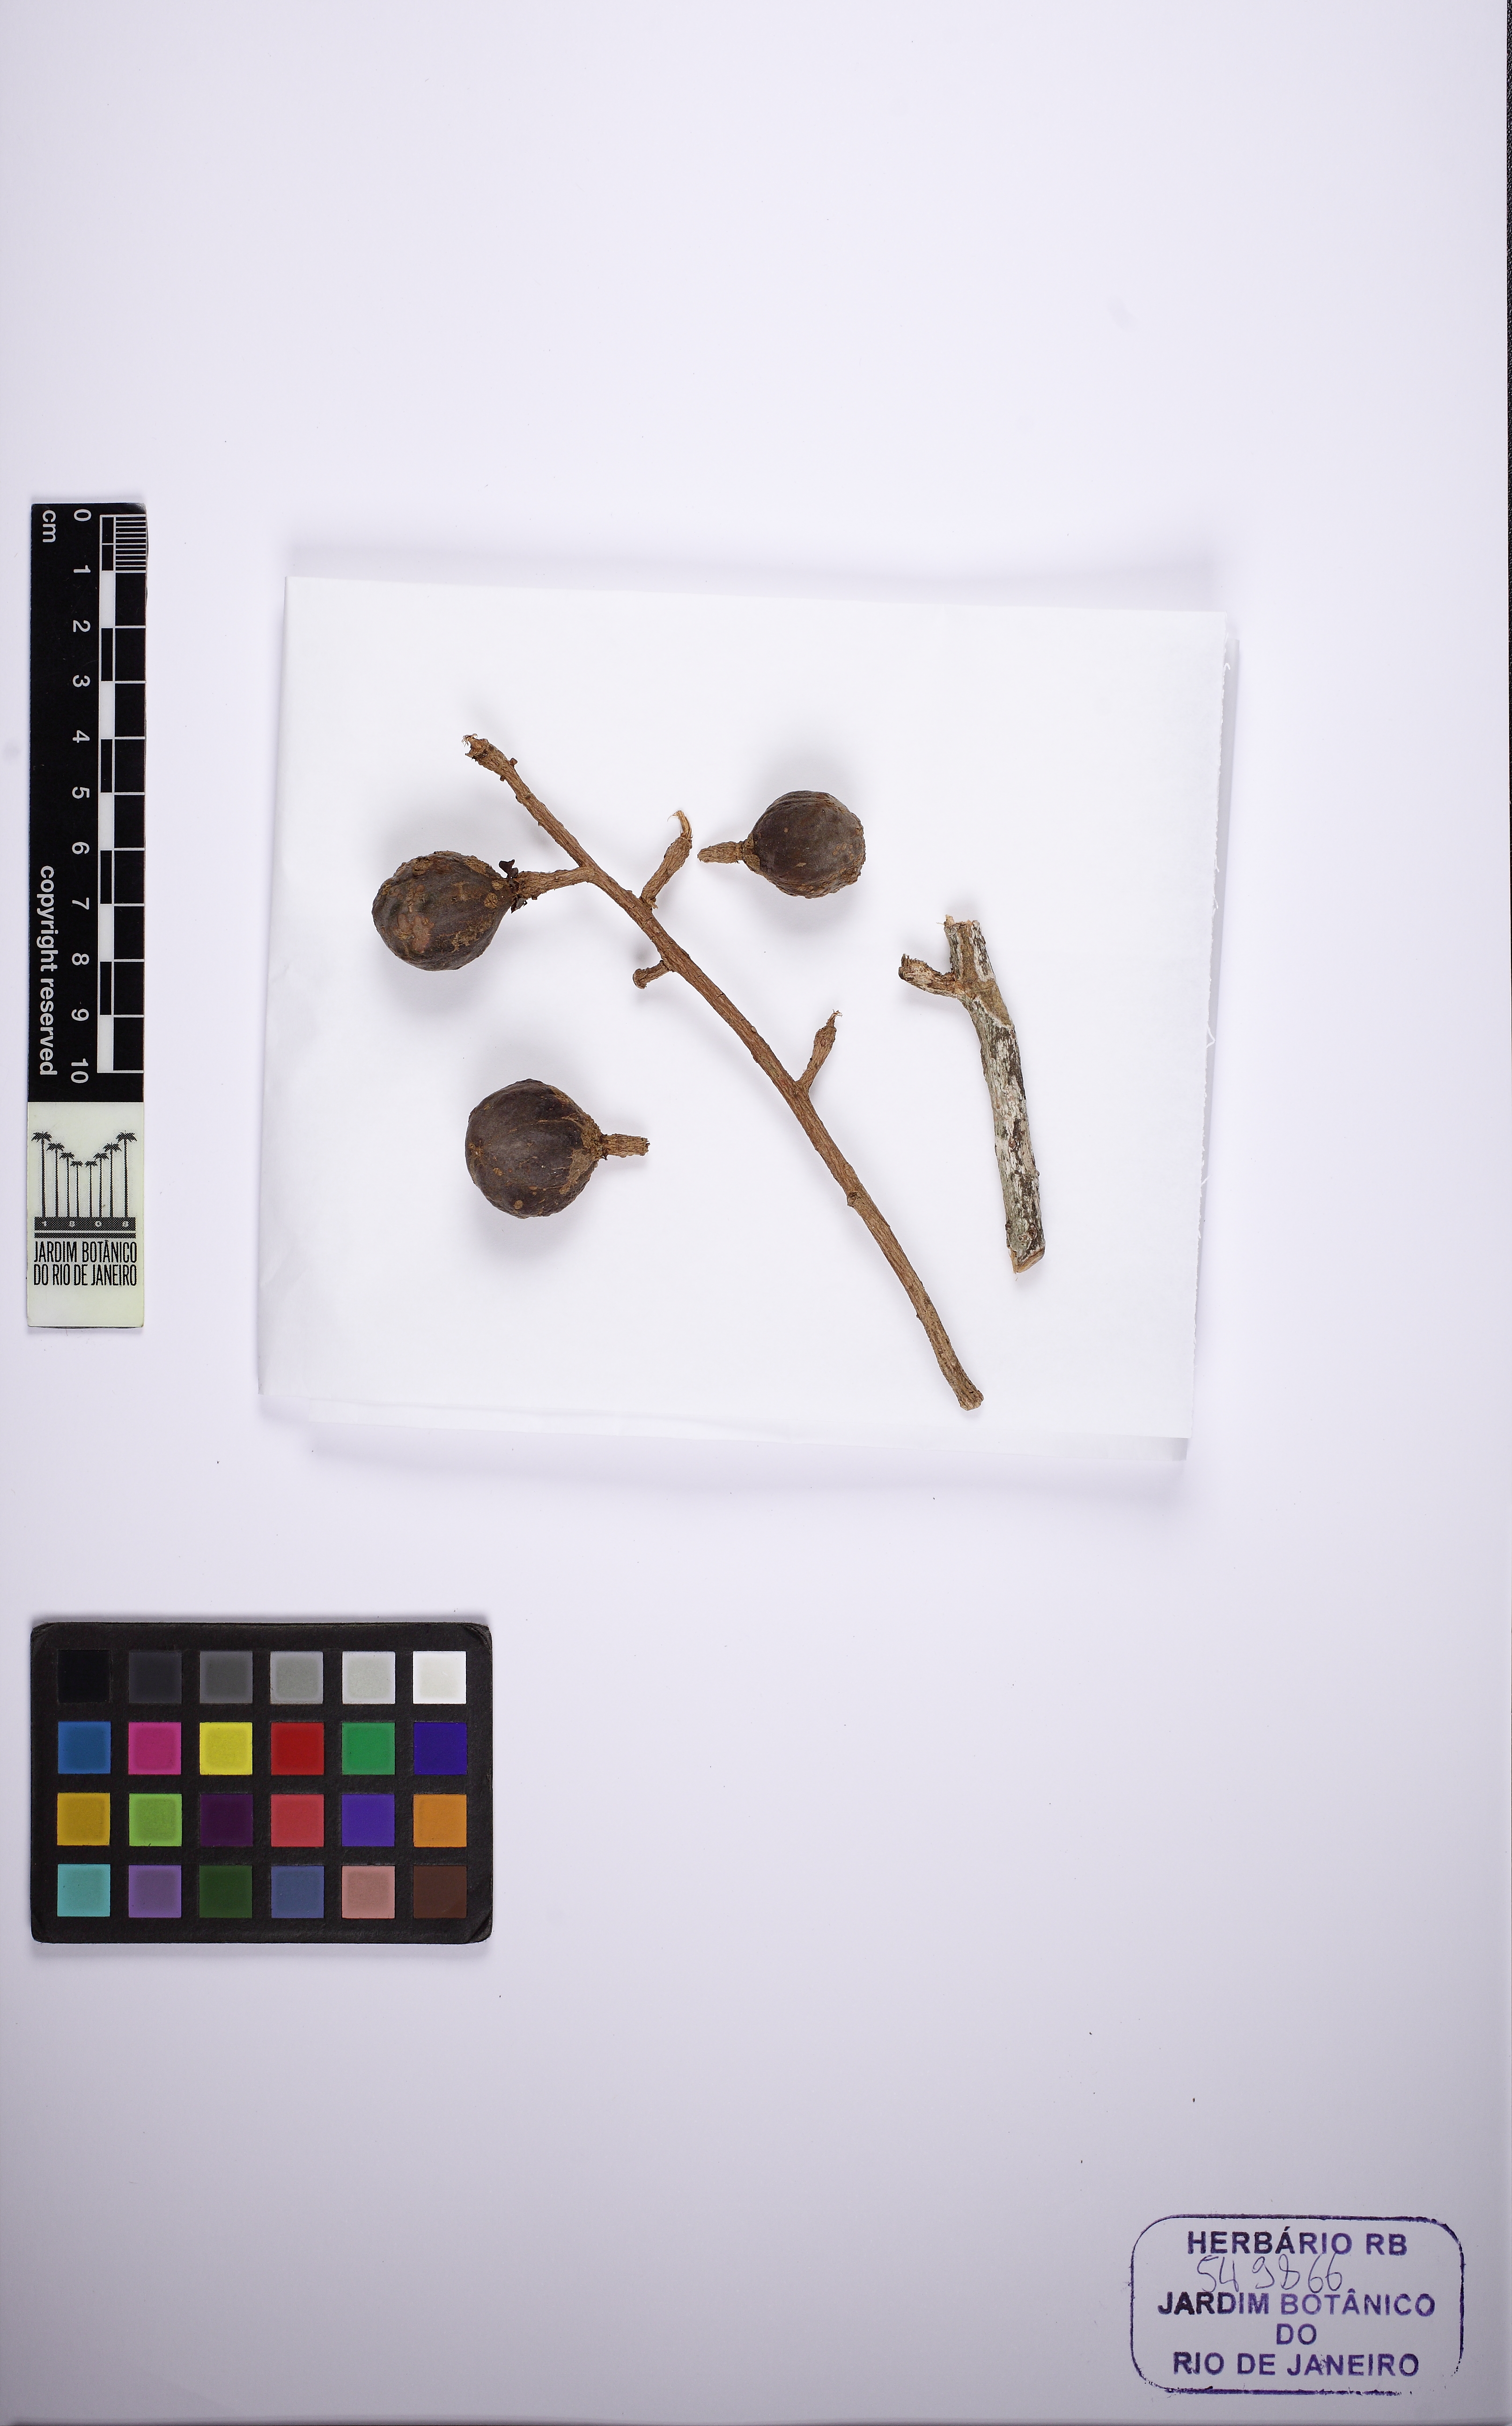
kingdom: Plantae
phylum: Tracheophyta
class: Magnoliopsida
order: Sapindales
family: Meliaceae
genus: Guarea
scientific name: Guarea macrophylla
